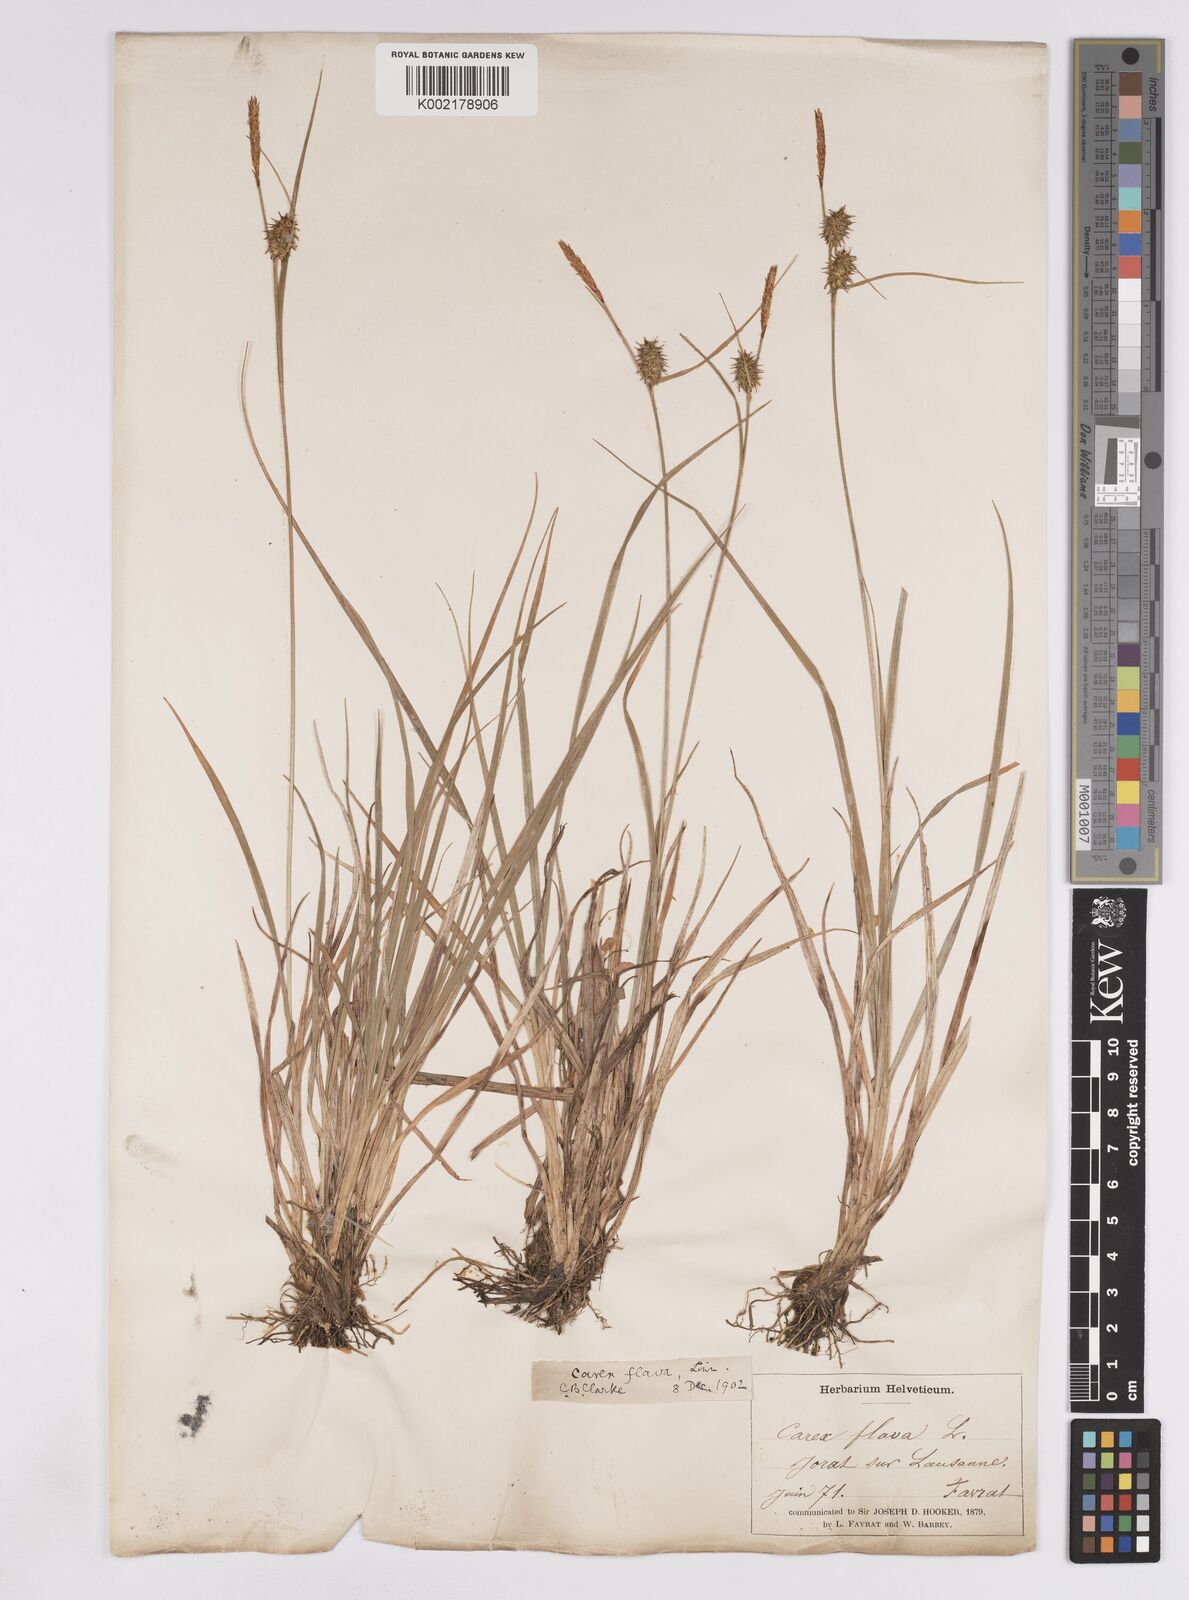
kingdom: Plantae
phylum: Tracheophyta
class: Liliopsida
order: Poales
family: Cyperaceae
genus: Carex
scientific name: Carex lepidocarpa
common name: Long-stalked yellow-sedge
